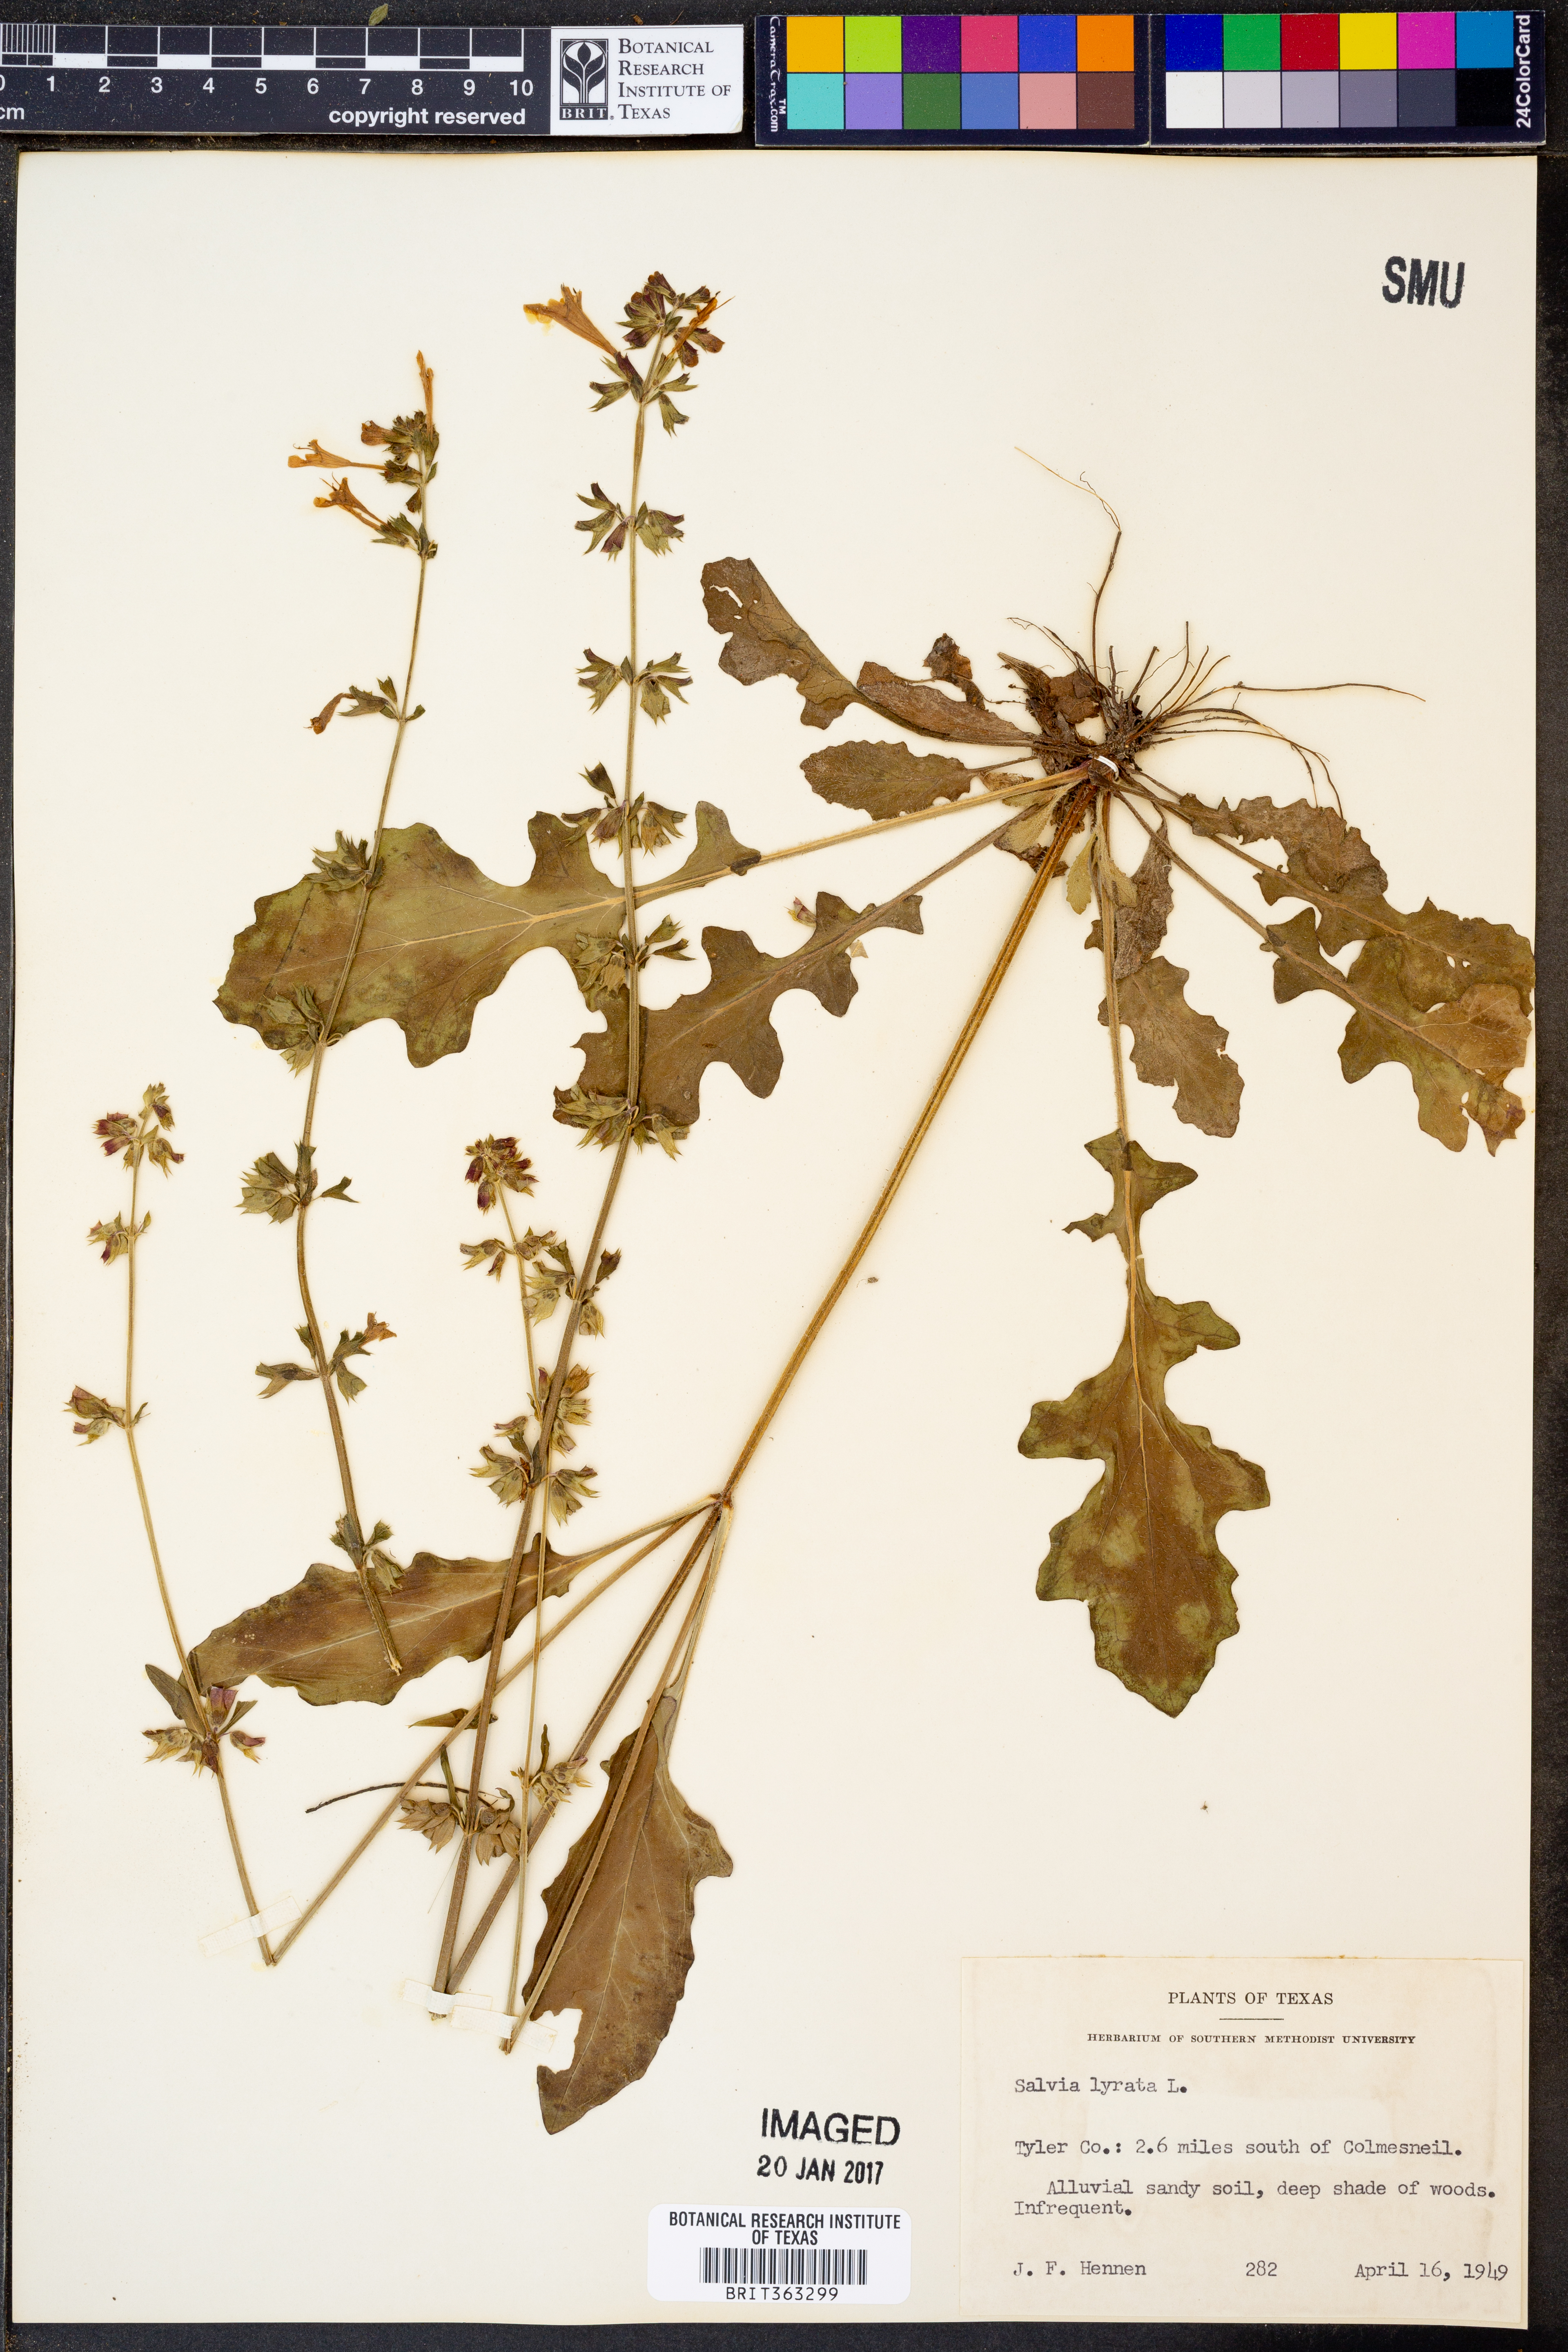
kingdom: Plantae
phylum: Tracheophyta
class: Magnoliopsida
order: Lamiales
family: Lamiaceae
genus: Salvia
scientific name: Salvia lyrata
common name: Cancerweed
